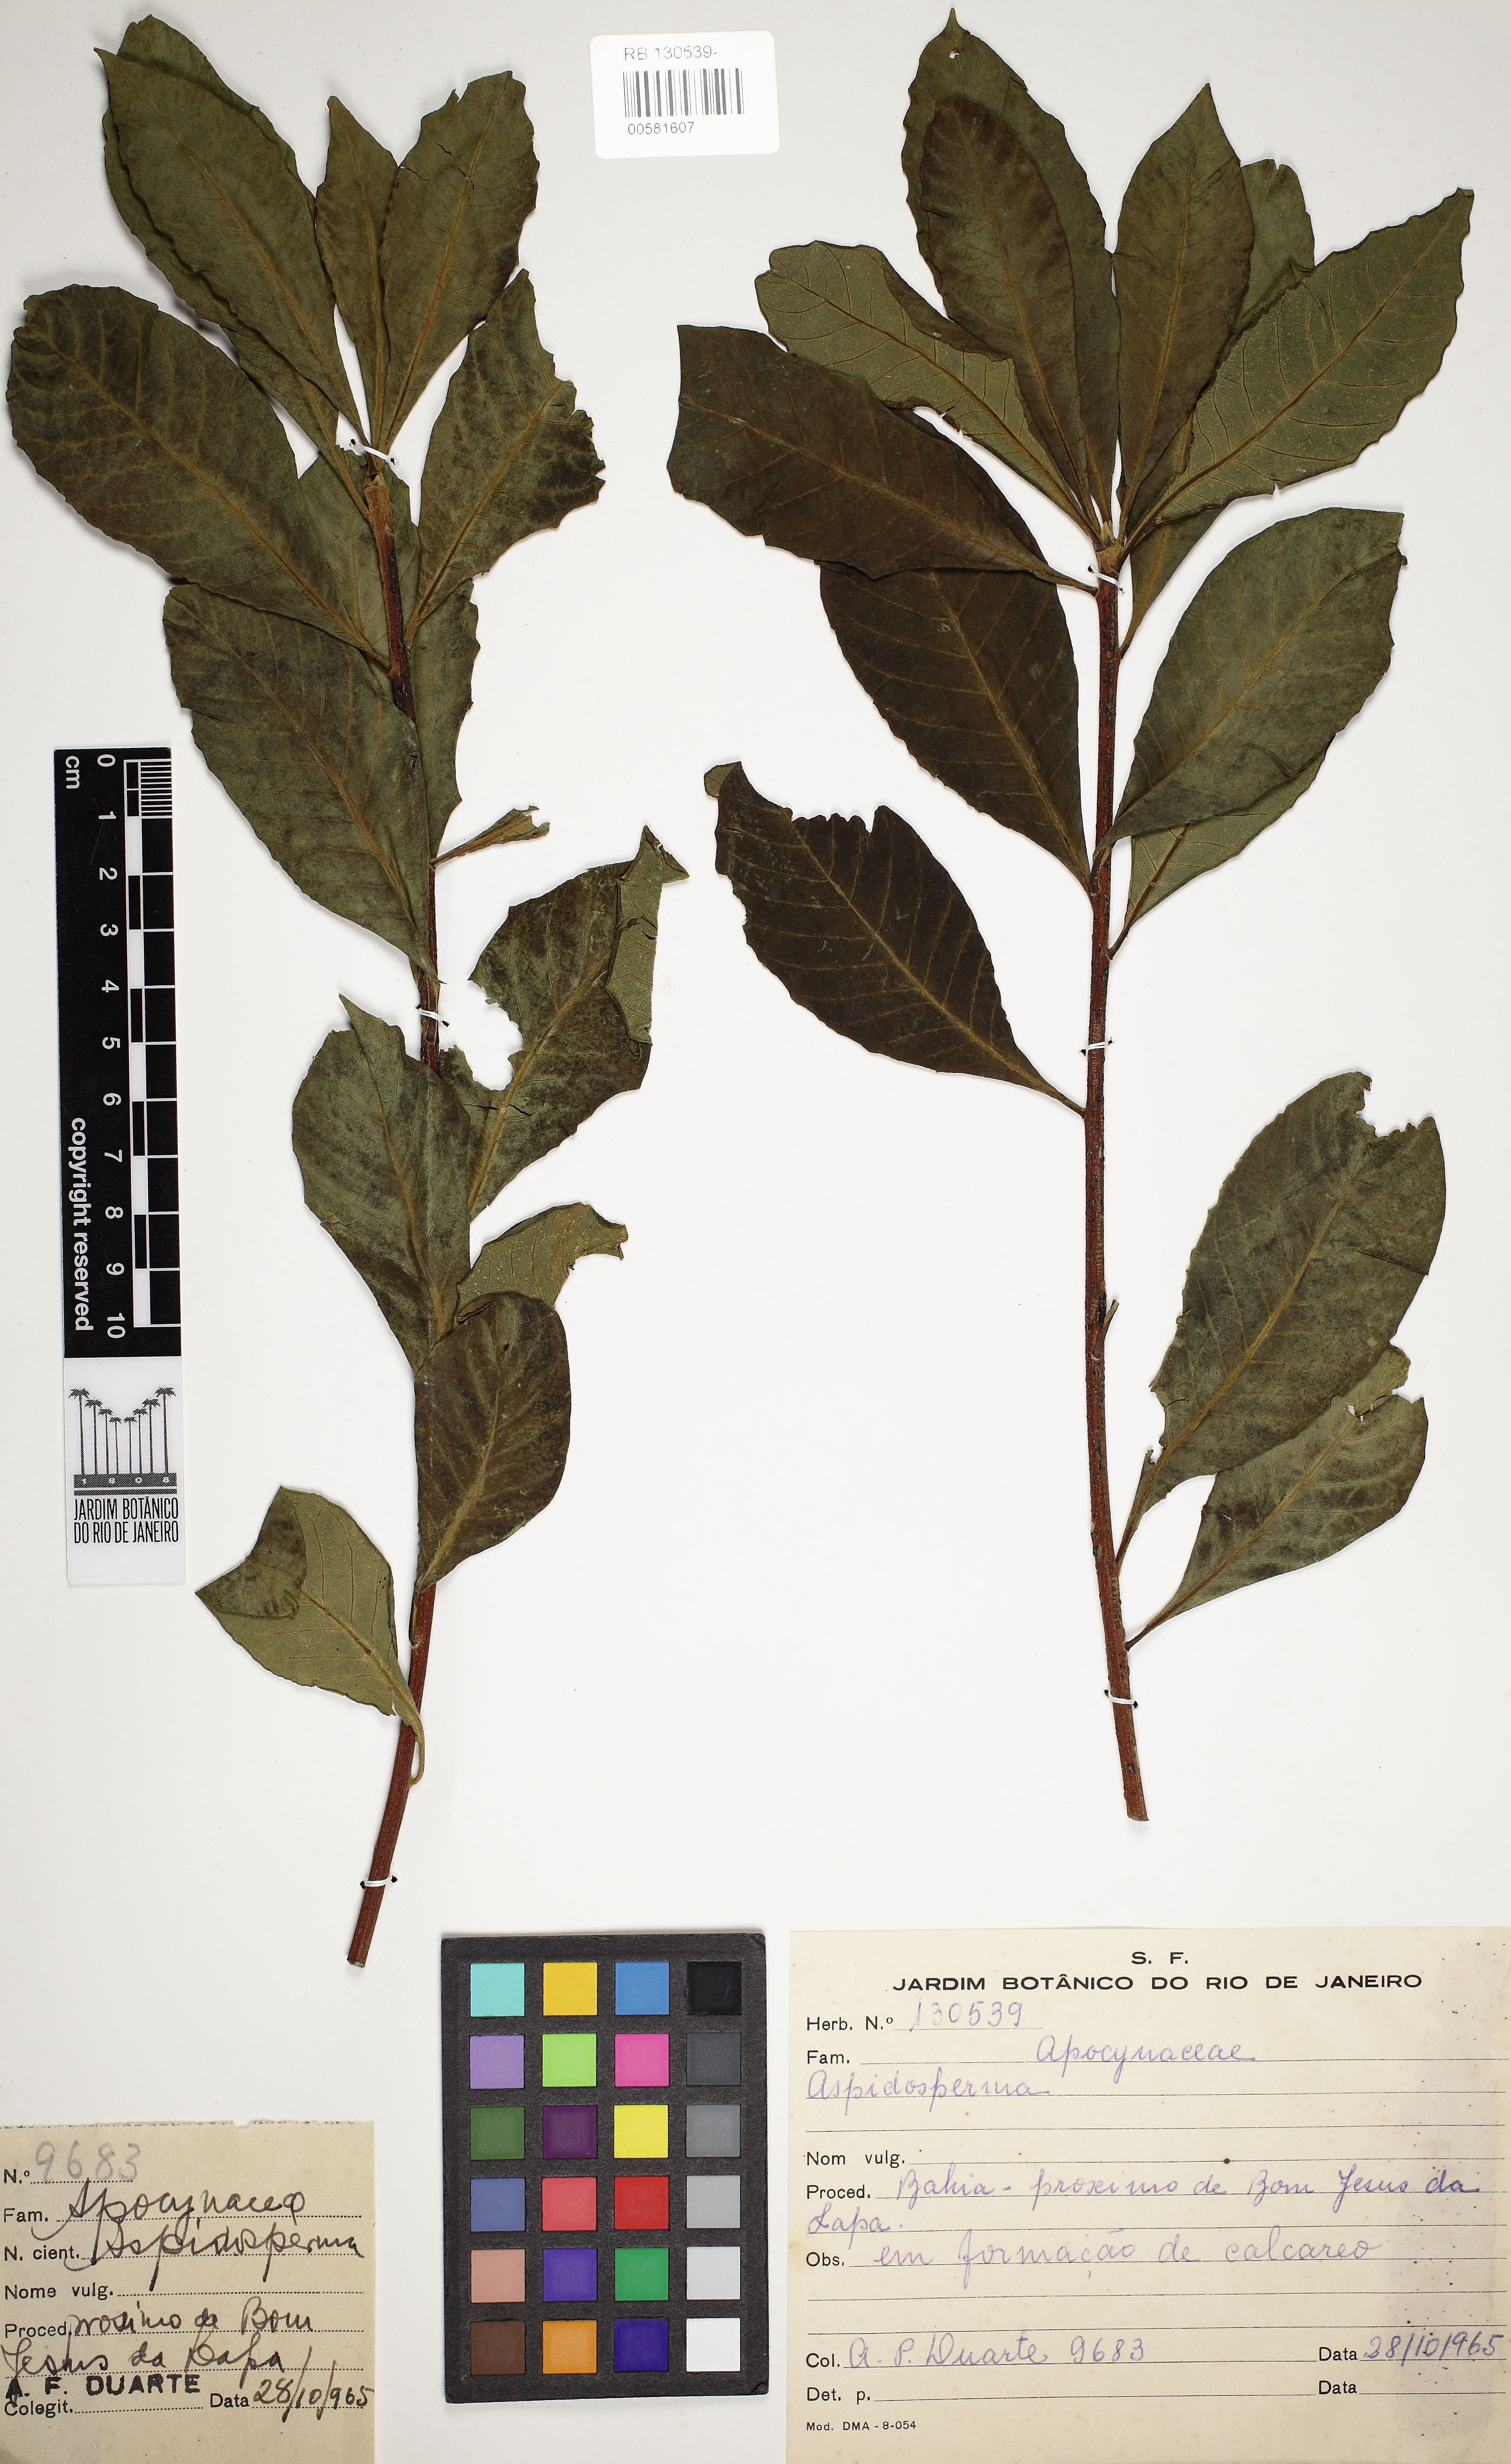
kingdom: Plantae
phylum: Tracheophyta
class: Magnoliopsida
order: Gentianales
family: Apocynaceae
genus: Aspidosperma
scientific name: Aspidosperma
